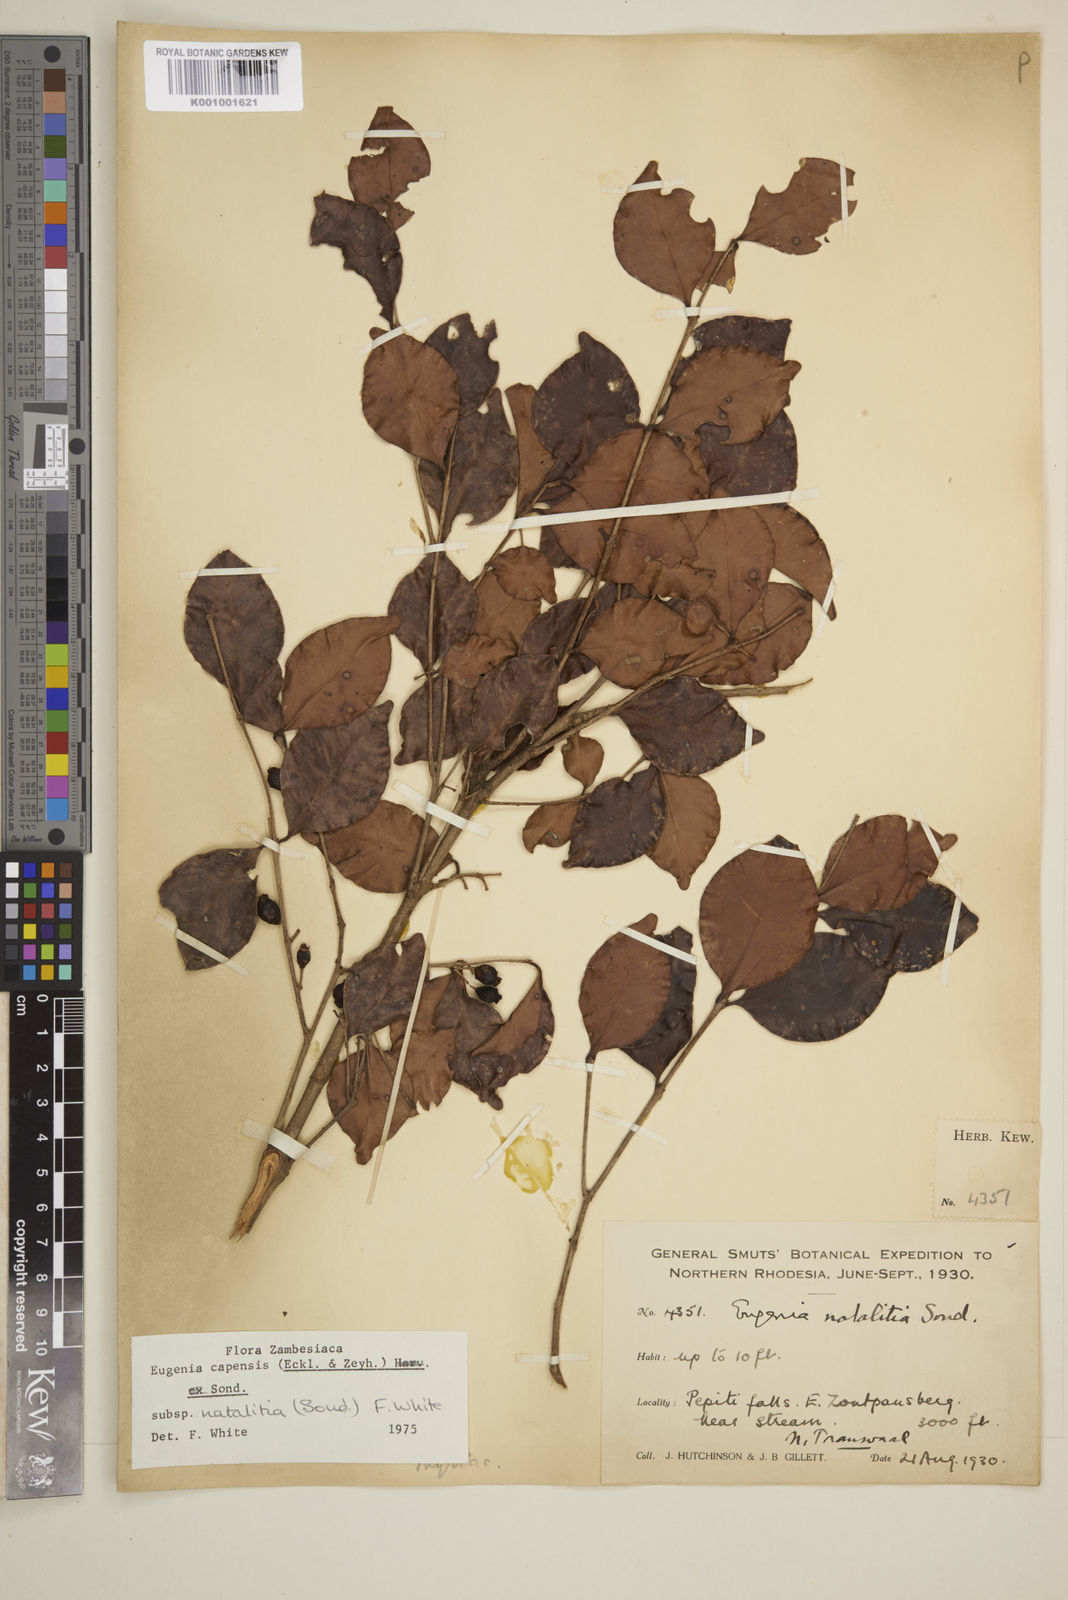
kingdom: Plantae
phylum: Tracheophyta
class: Magnoliopsida
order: Myrtales
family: Myrtaceae
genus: Eugenia
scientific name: Eugenia natalitia
